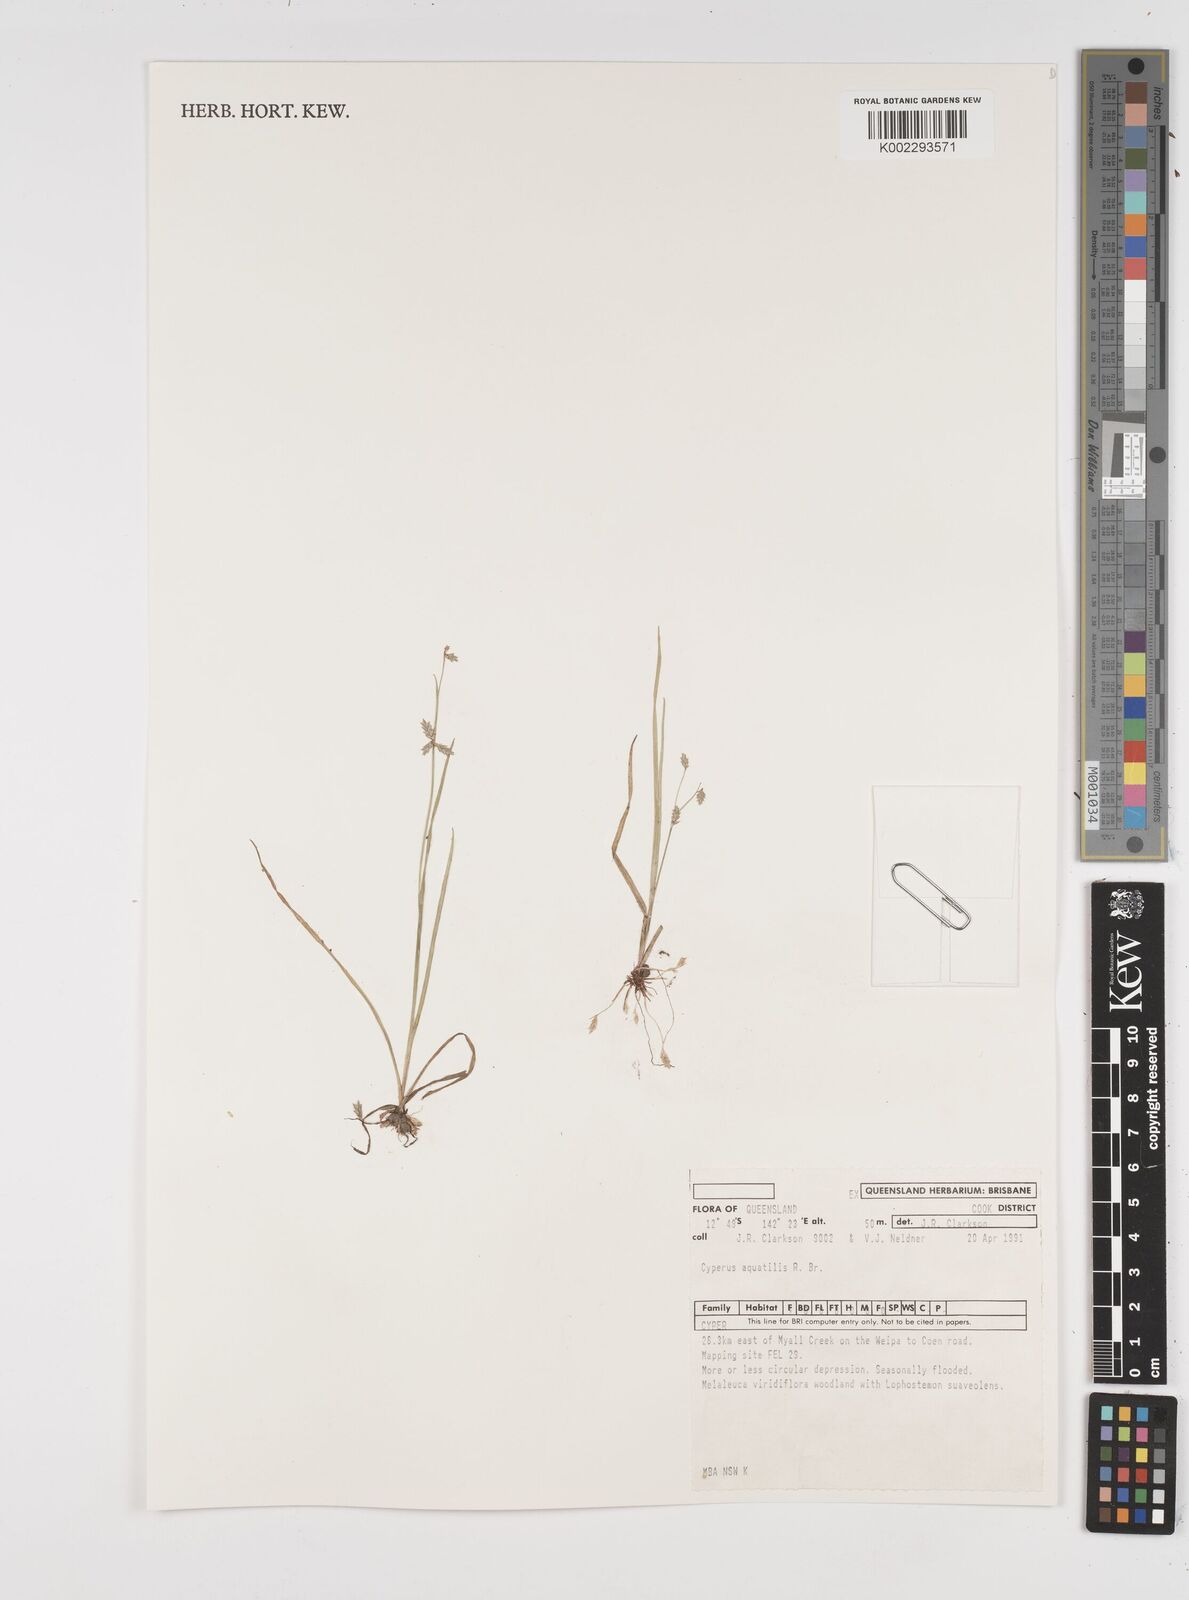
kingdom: Plantae
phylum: Tracheophyta
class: Liliopsida
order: Poales
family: Cyperaceae
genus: Cyperus
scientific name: Cyperus aquatilis
